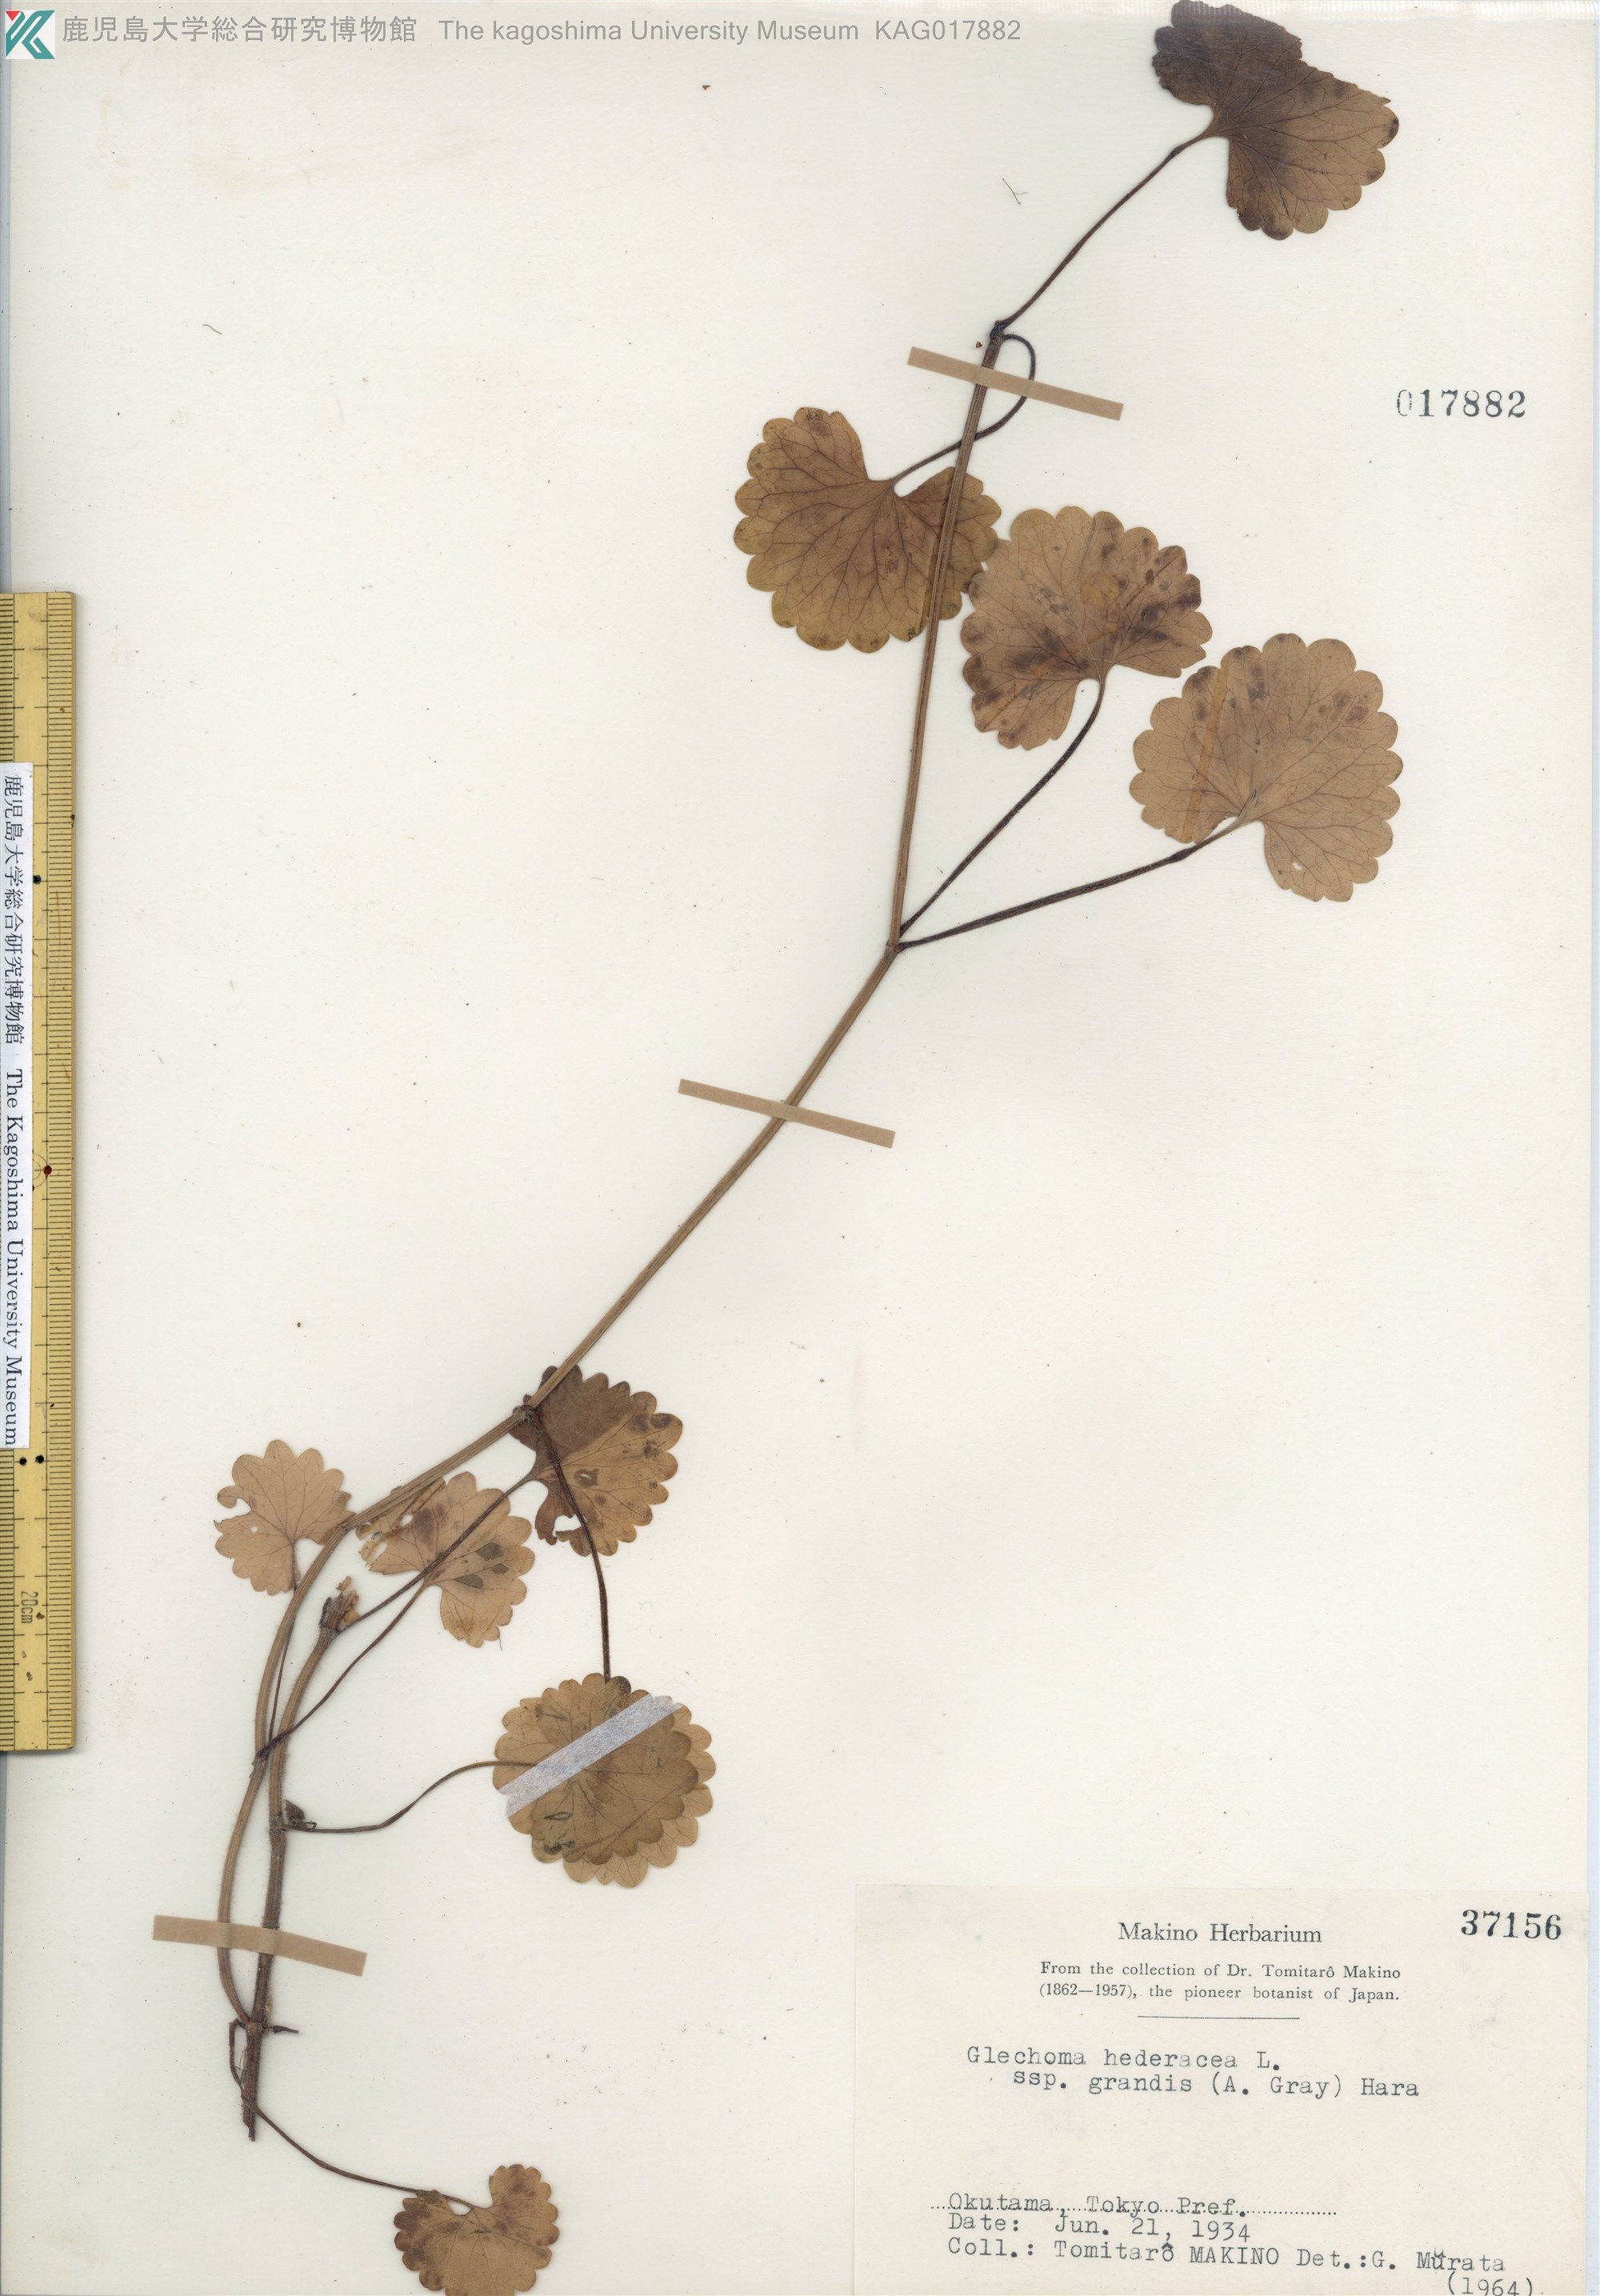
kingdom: Plantae
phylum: Tracheophyta
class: Magnoliopsida
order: Lamiales
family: Lamiaceae
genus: Glechoma
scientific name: Glechoma grandis
